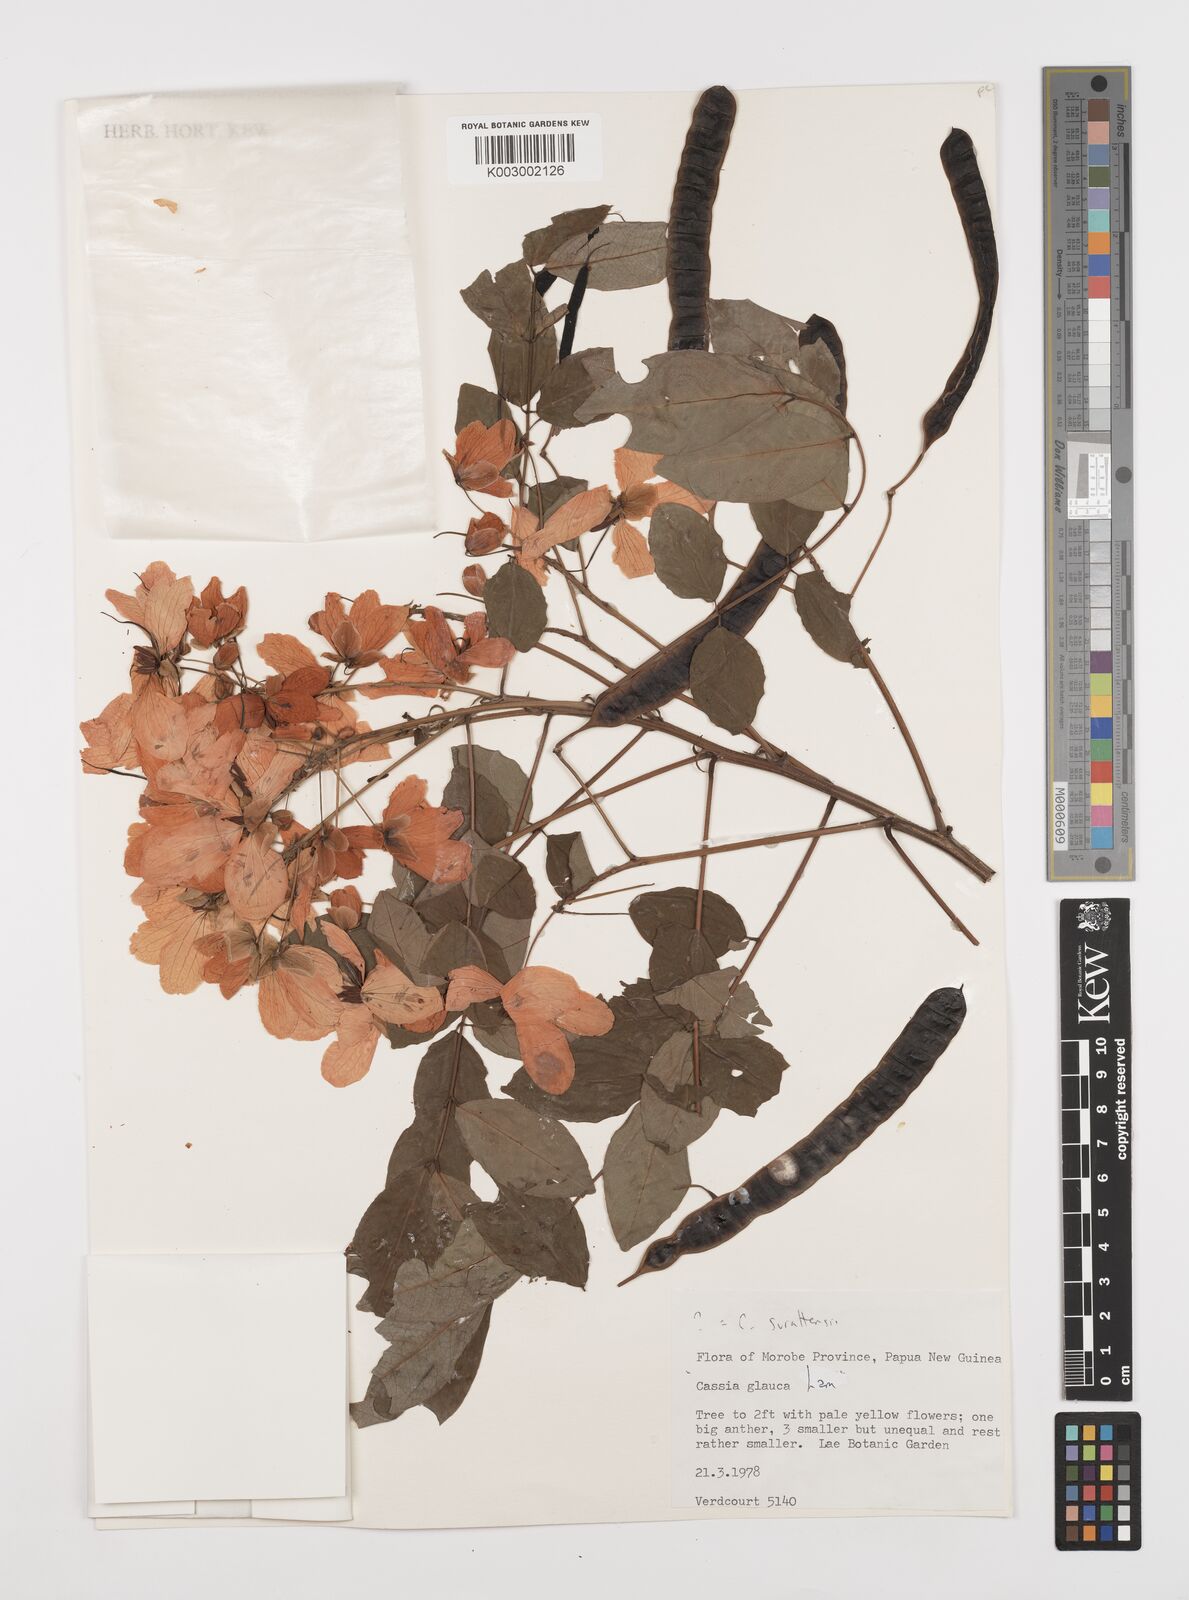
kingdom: Plantae
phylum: Tracheophyta
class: Magnoliopsida
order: Fabales
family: Fabaceae
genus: Senna
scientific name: Senna surattensis
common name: Glossy shower
